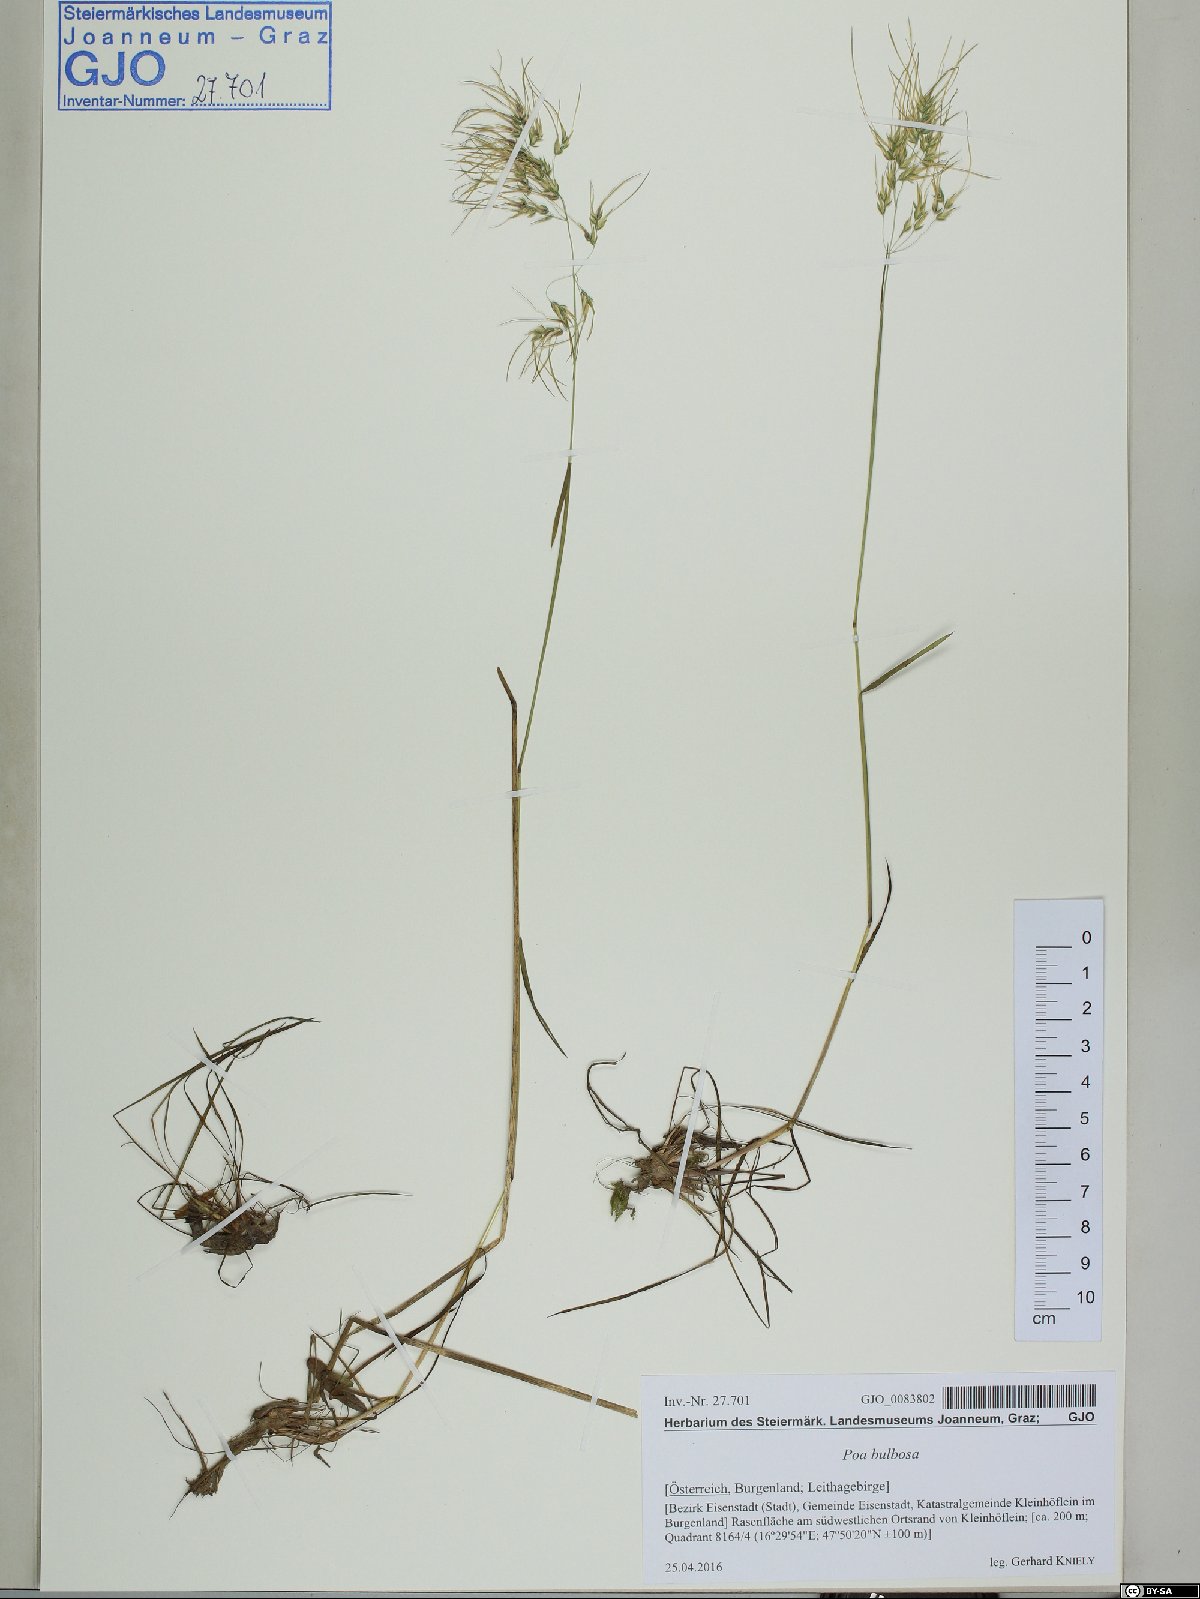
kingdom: Plantae
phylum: Tracheophyta
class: Liliopsida
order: Poales
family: Poaceae
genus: Poa
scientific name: Poa bulbosa
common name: Bulbous bluegrass
